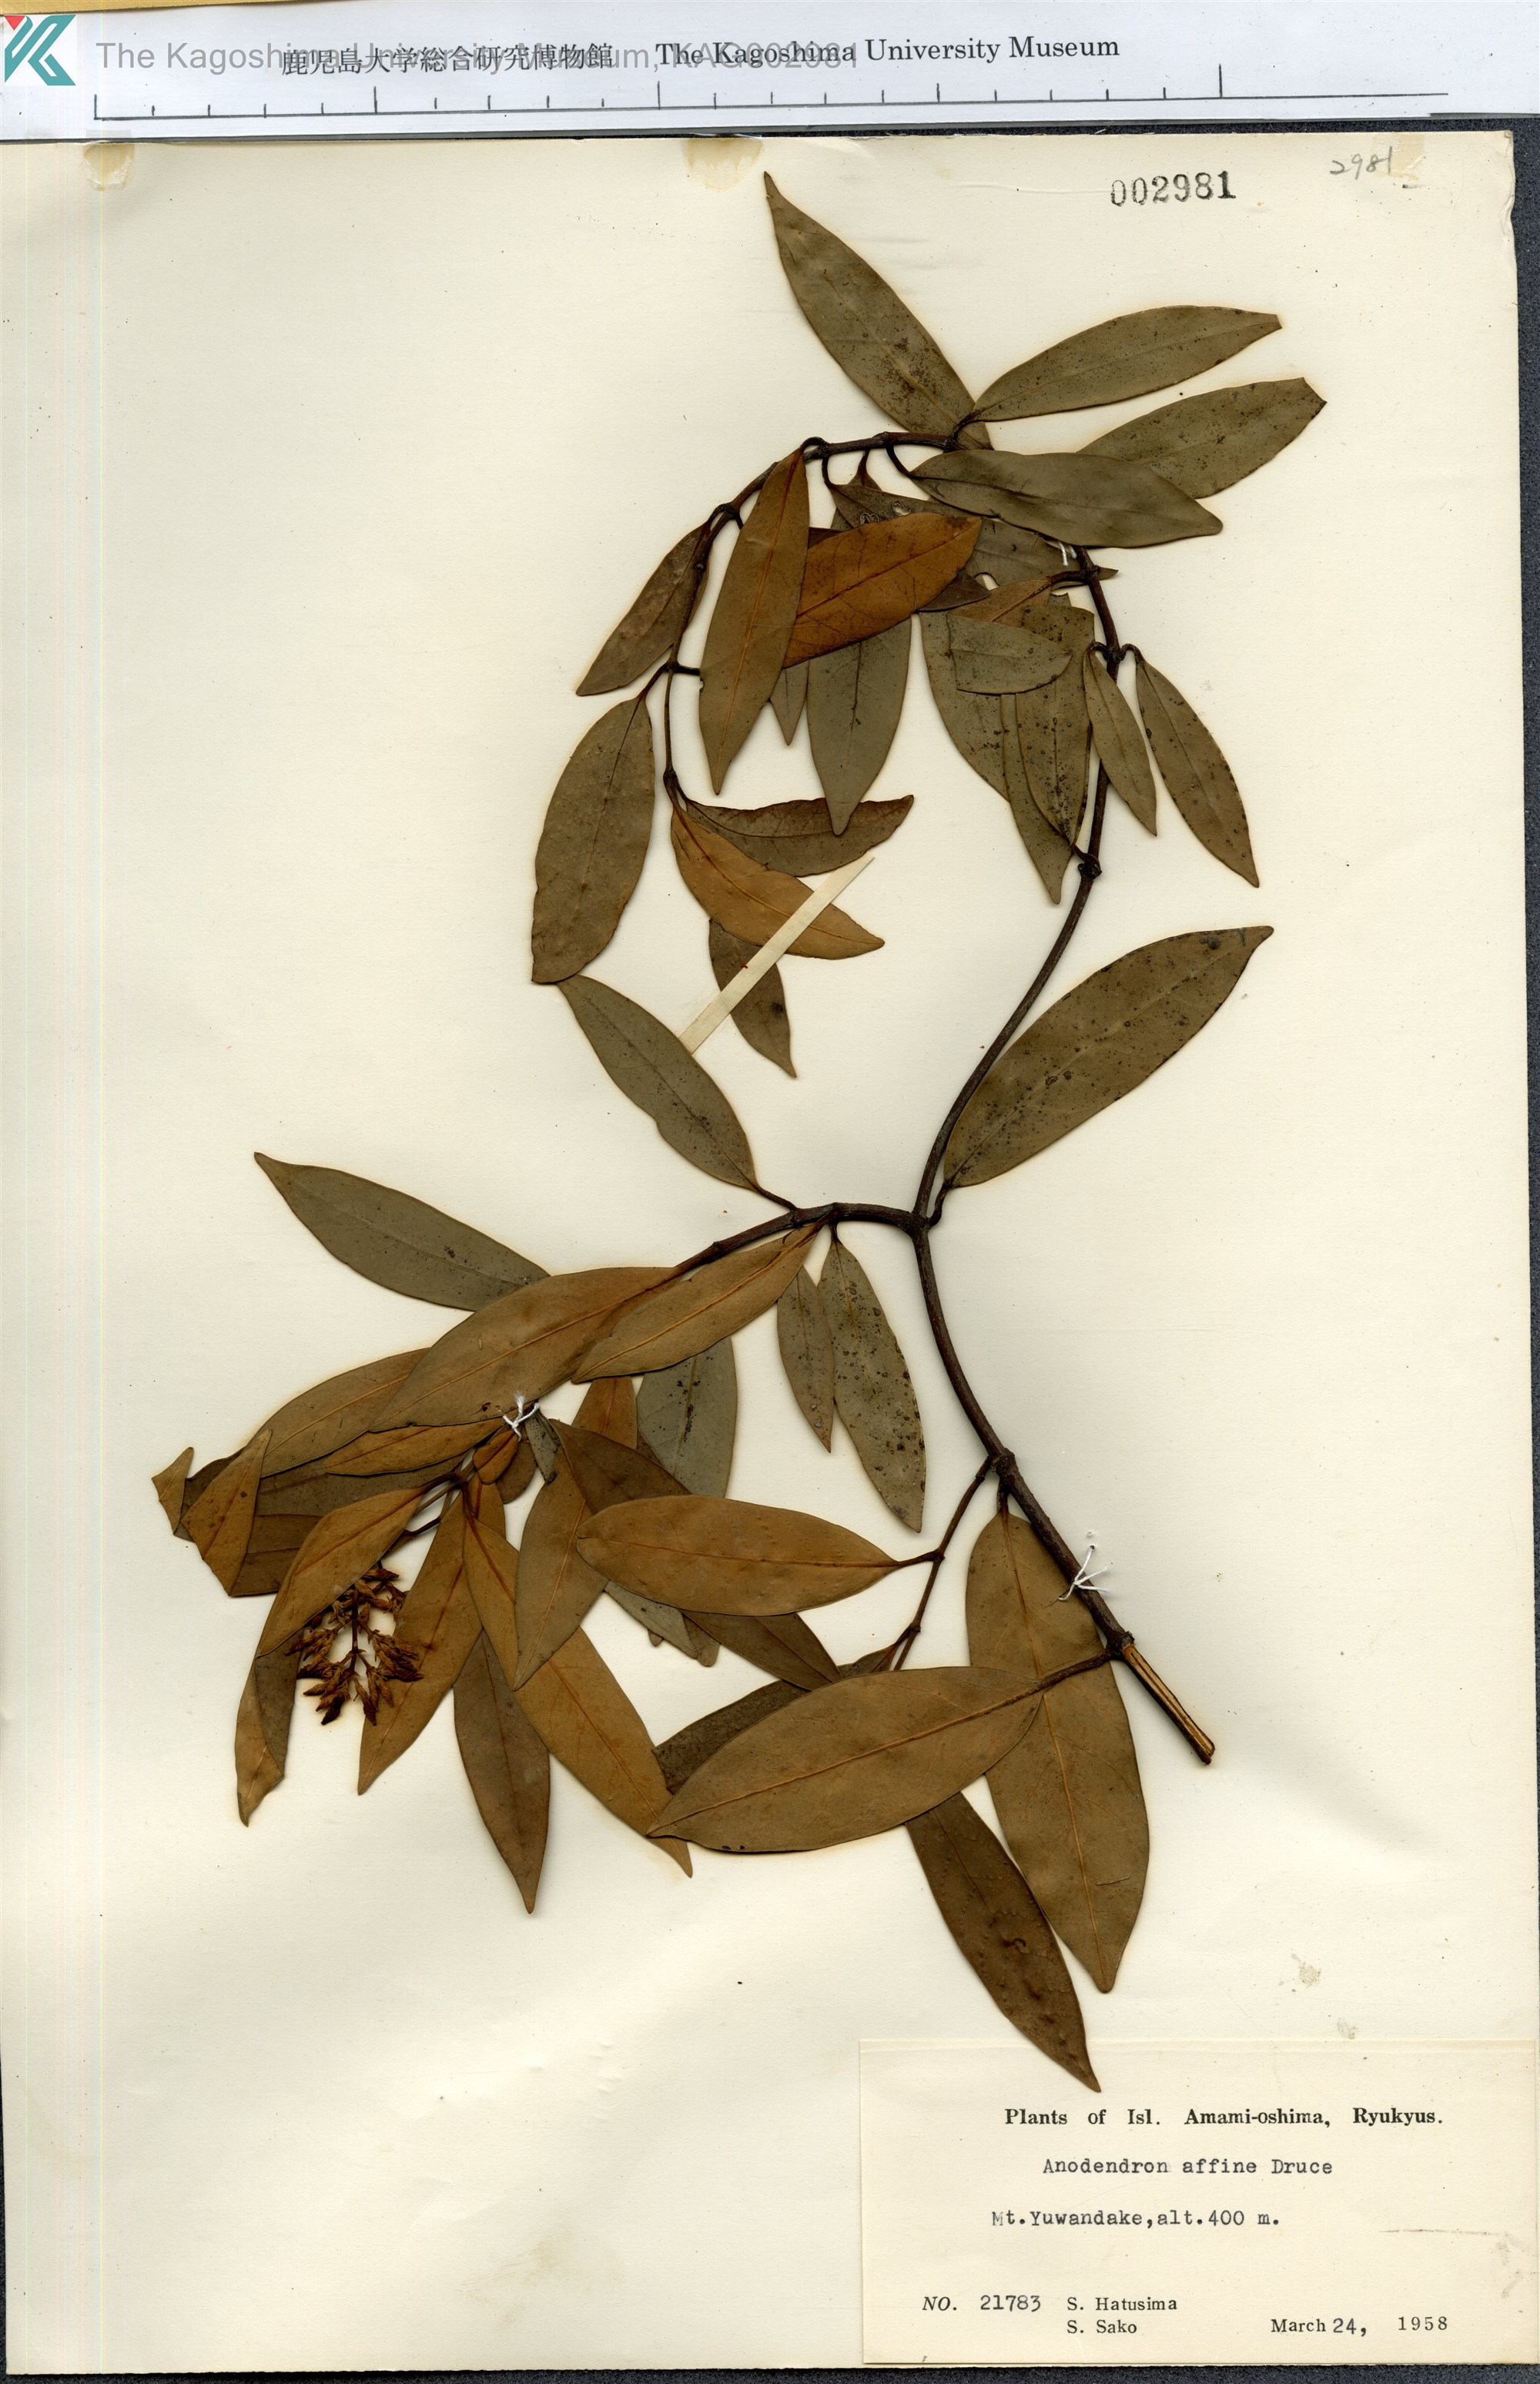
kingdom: Plantae
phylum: Tracheophyta
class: Magnoliopsida
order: Gentianales
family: Apocynaceae
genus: Anodendron
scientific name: Anodendron affine
